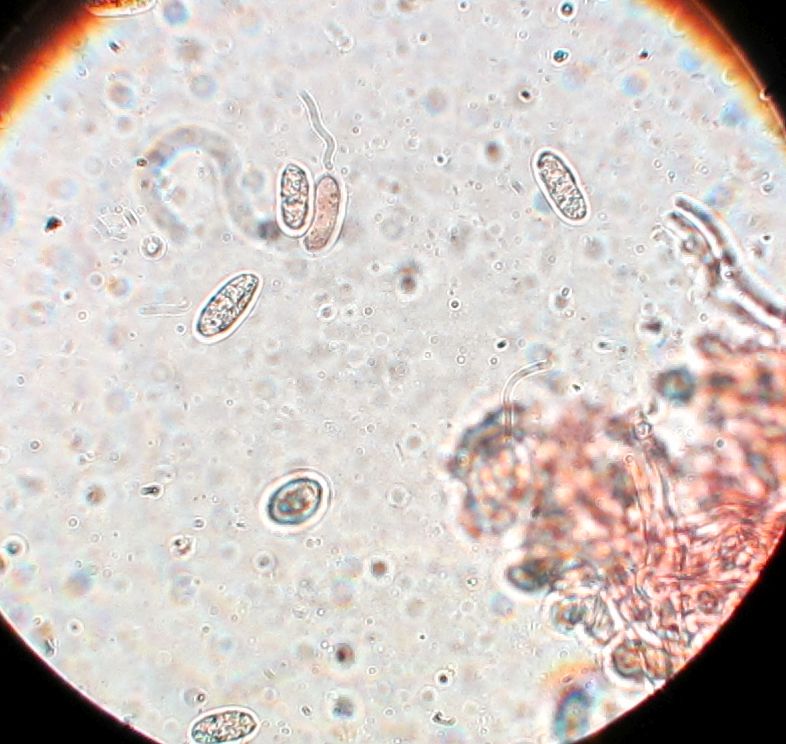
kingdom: Fungi
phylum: Basidiomycota
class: Agaricomycetes
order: Polyporales
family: Hyphodermataceae
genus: Hyphoderma
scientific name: Hyphoderma setigerum
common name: håret kalkskind
